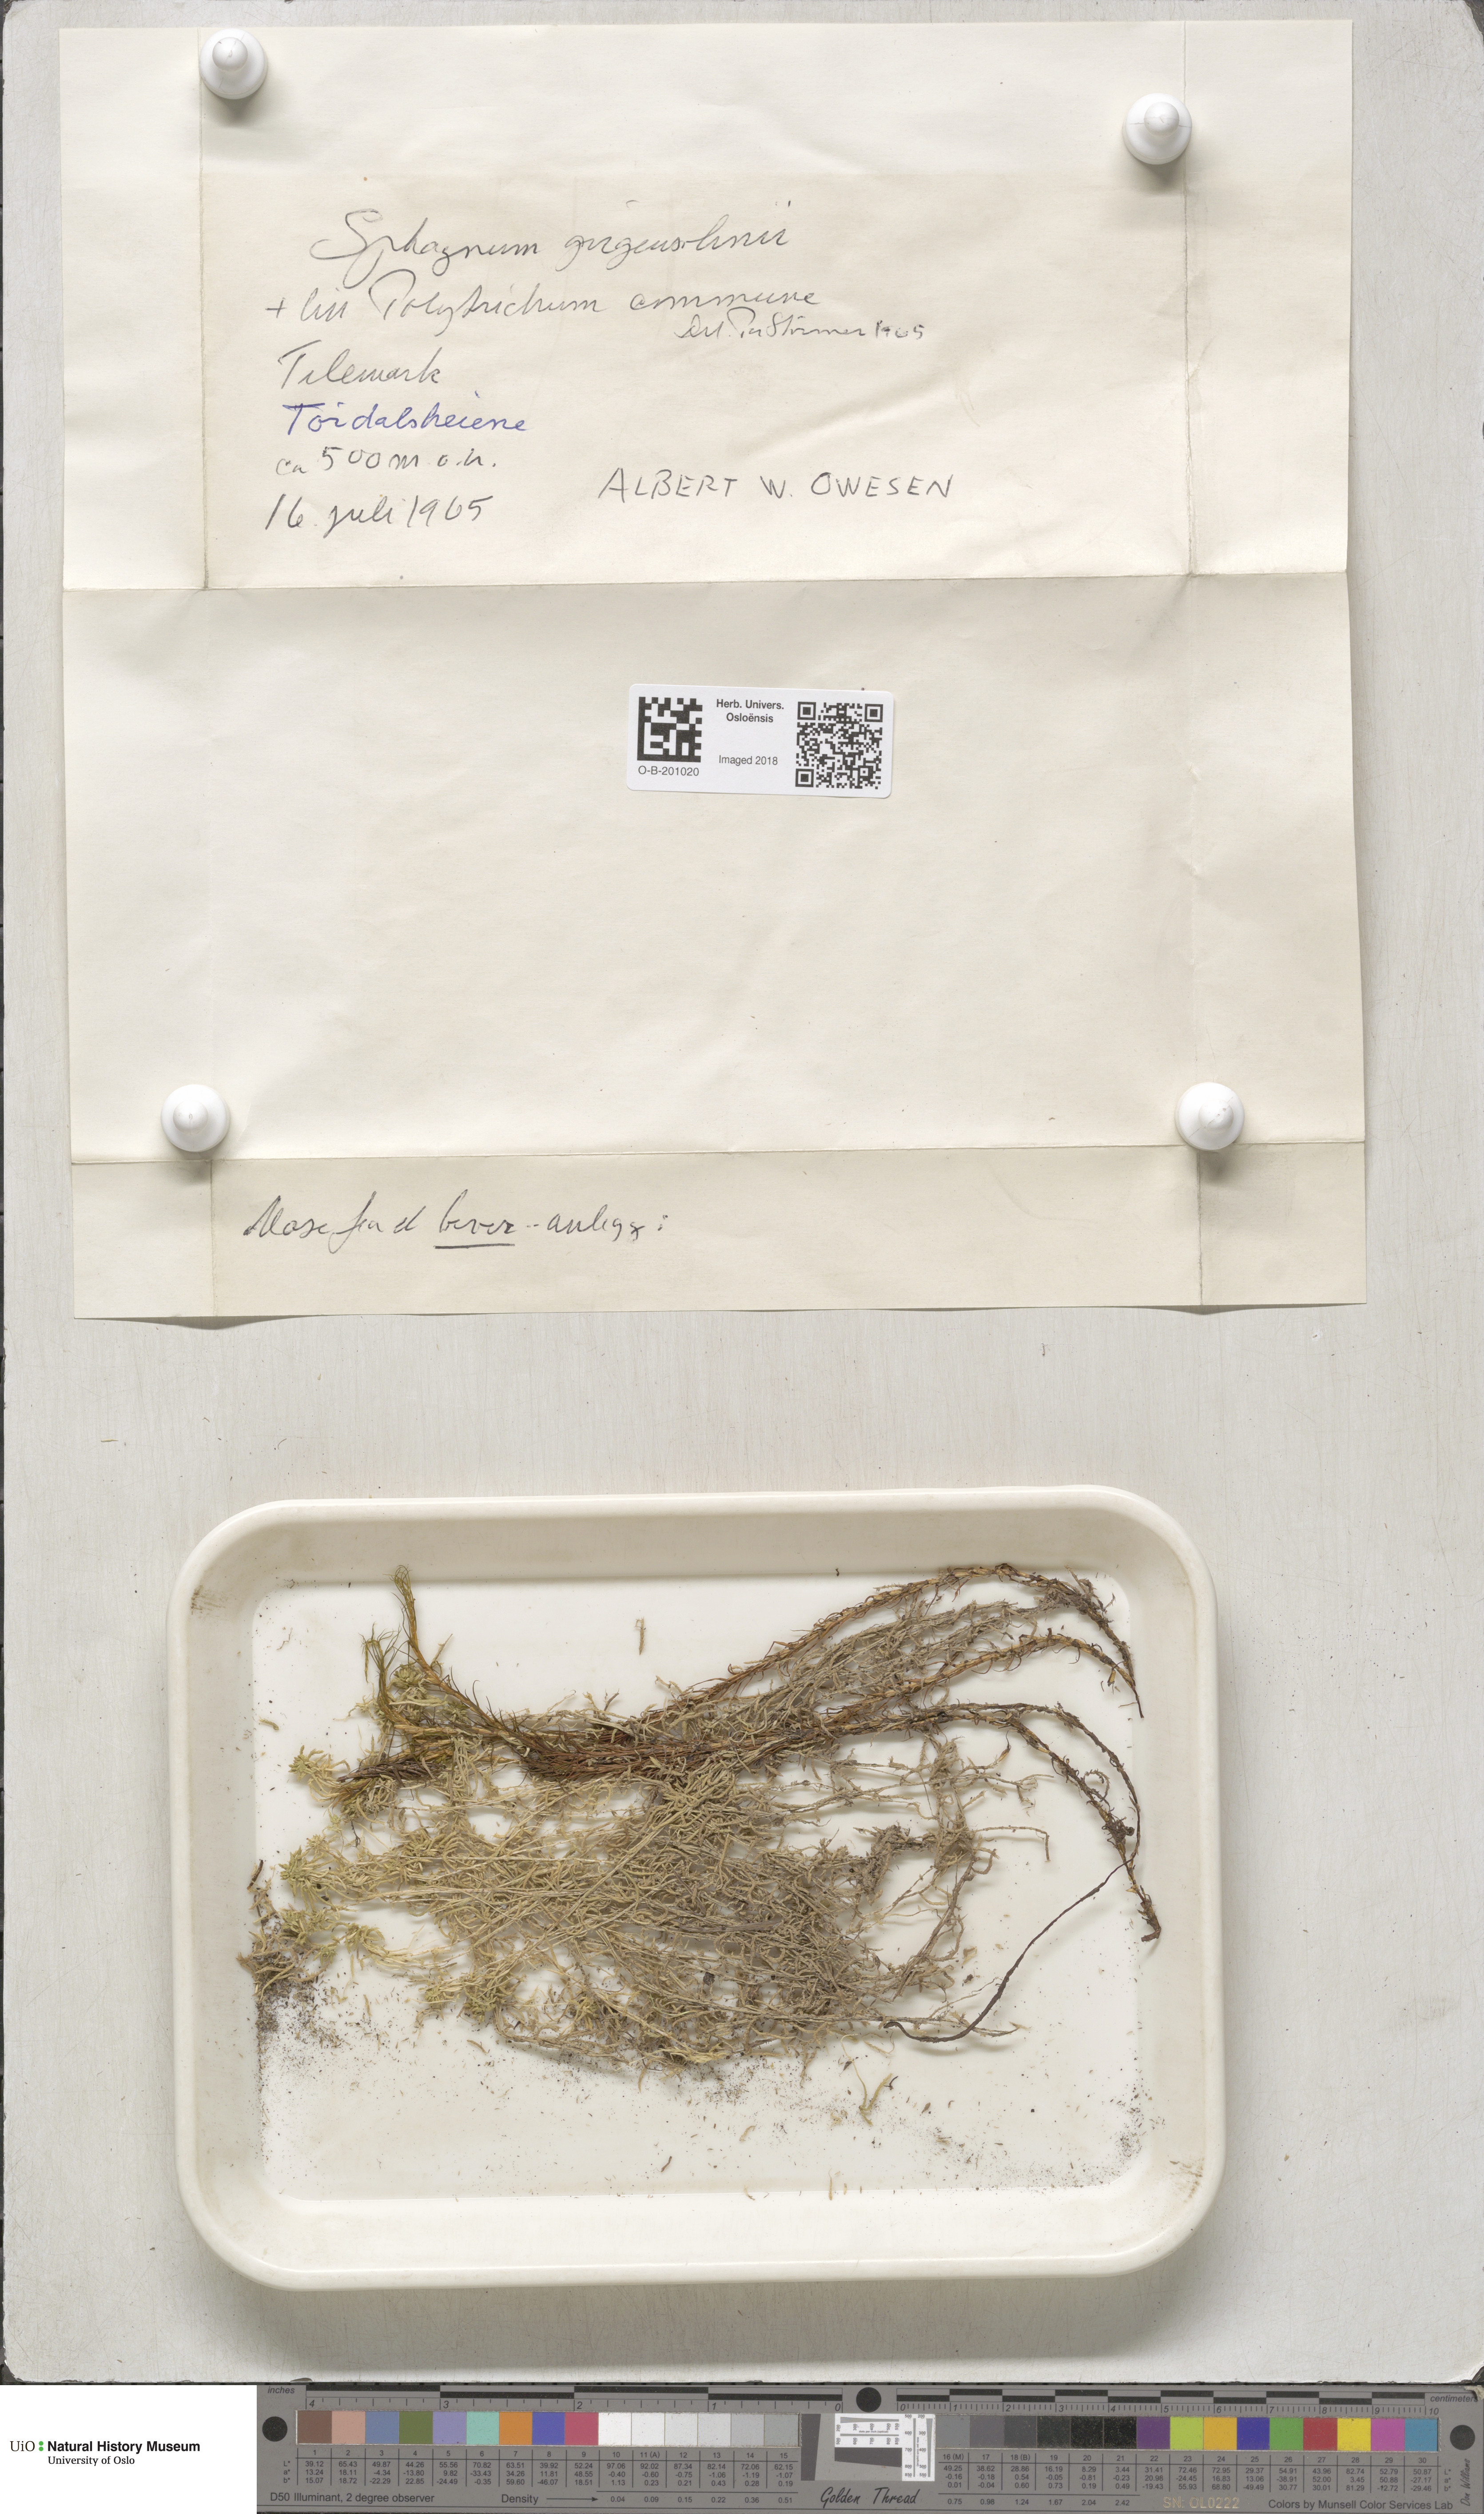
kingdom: Plantae
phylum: Bryophyta
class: Sphagnopsida
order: Sphagnales
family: Sphagnaceae
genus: Sphagnum
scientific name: Sphagnum girgensohnii
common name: Girgensohn's peat moss
